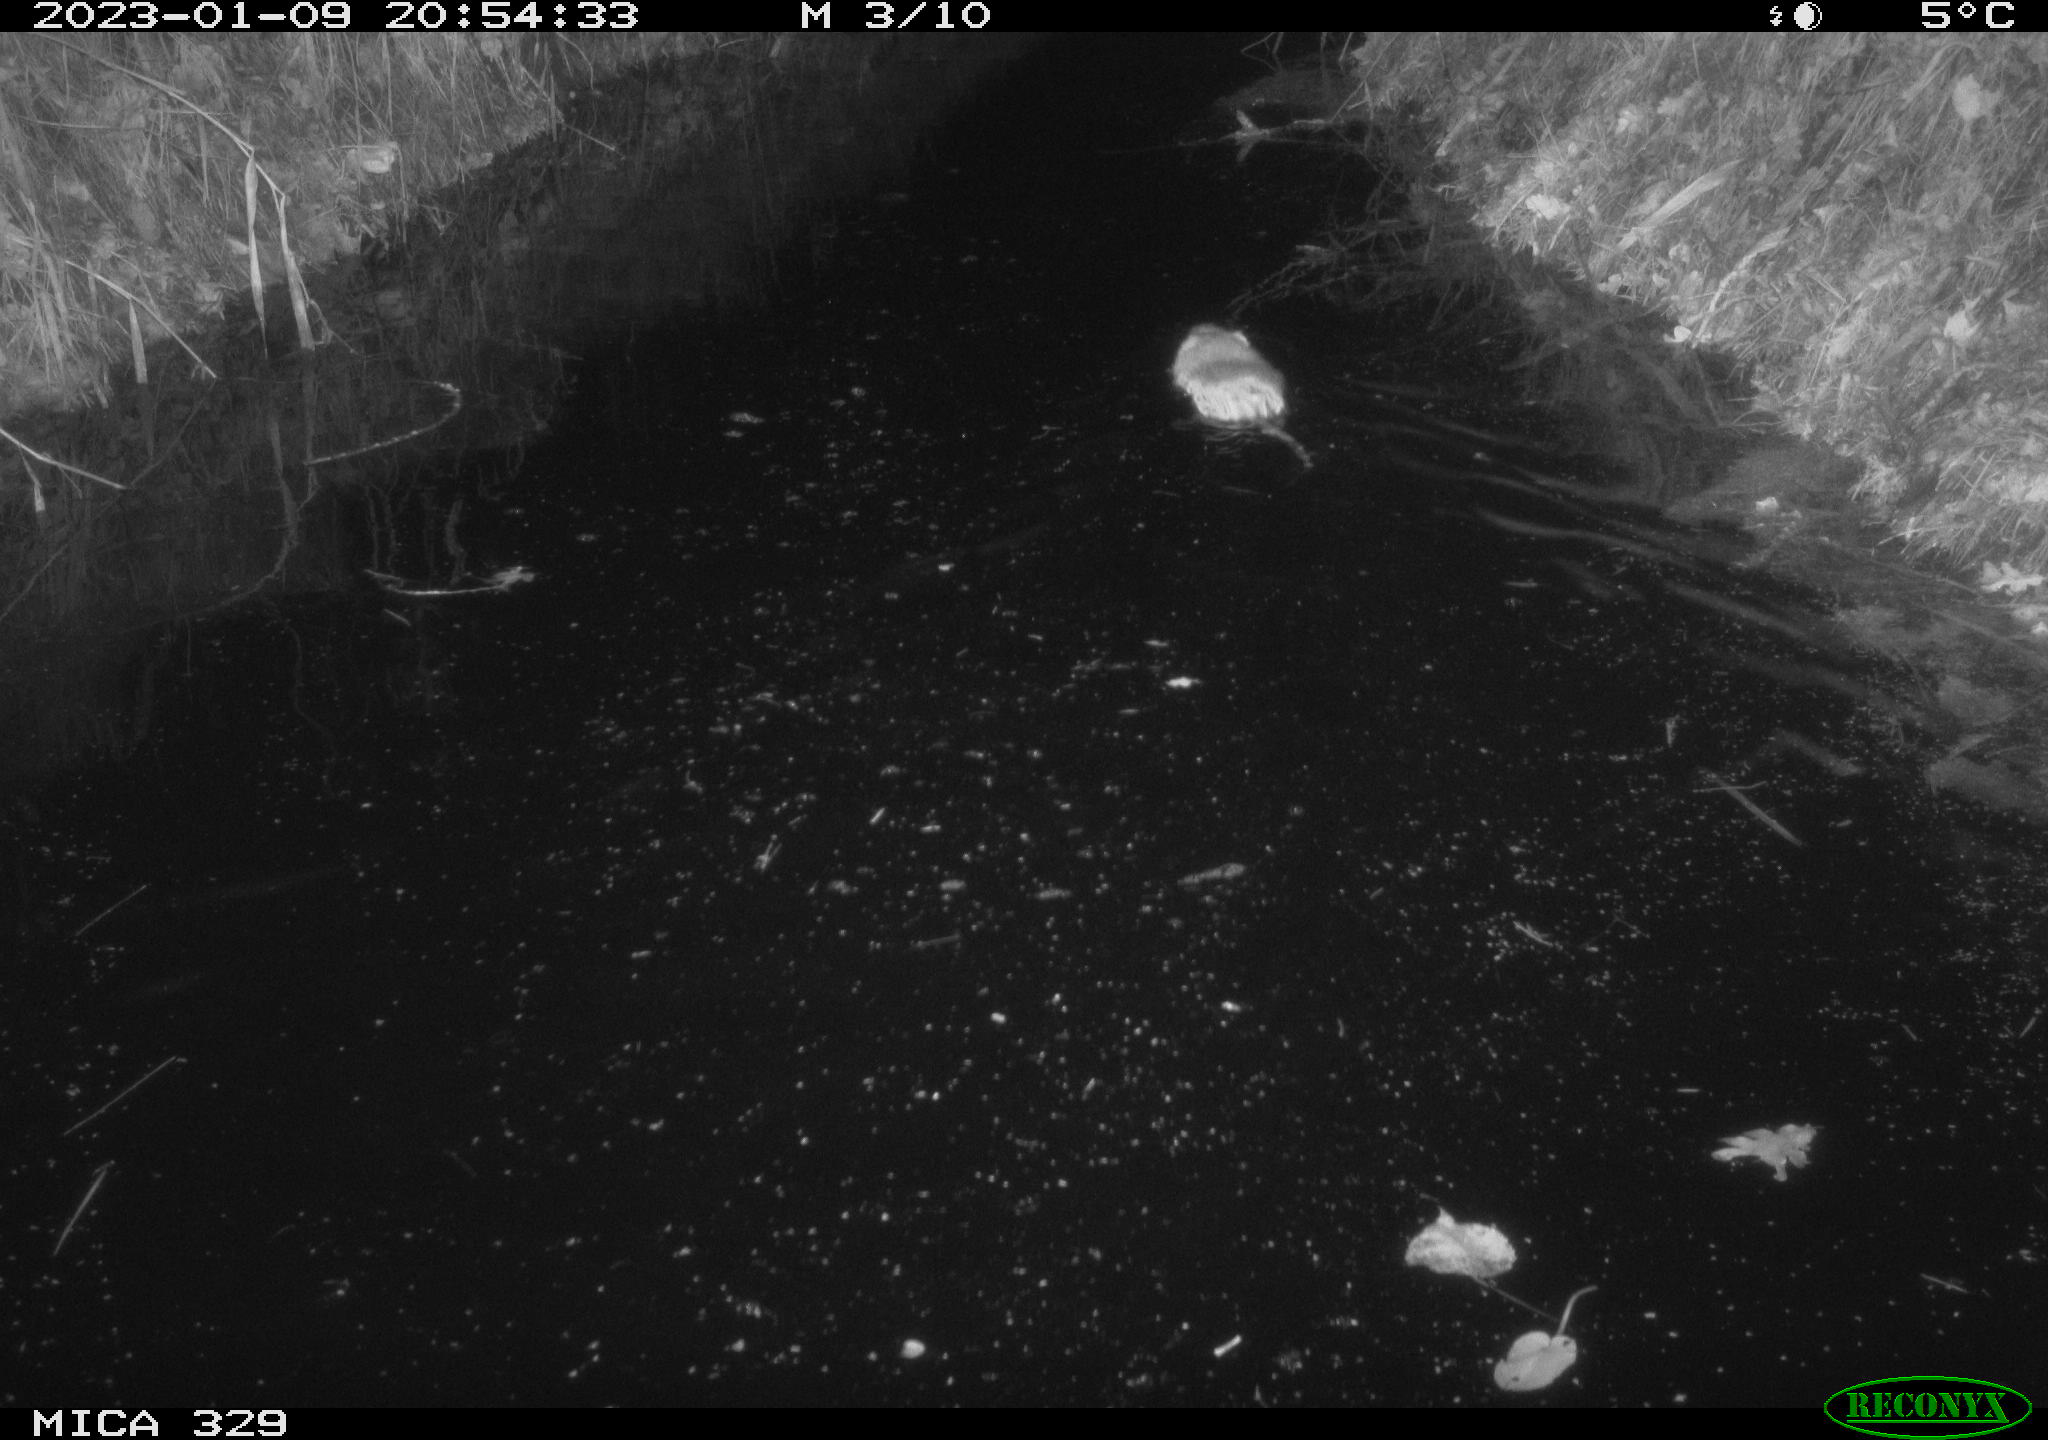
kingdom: Animalia
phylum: Chordata
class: Mammalia
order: Rodentia
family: Cricetidae
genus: Ondatra
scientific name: Ondatra zibethicus
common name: Muskrat
